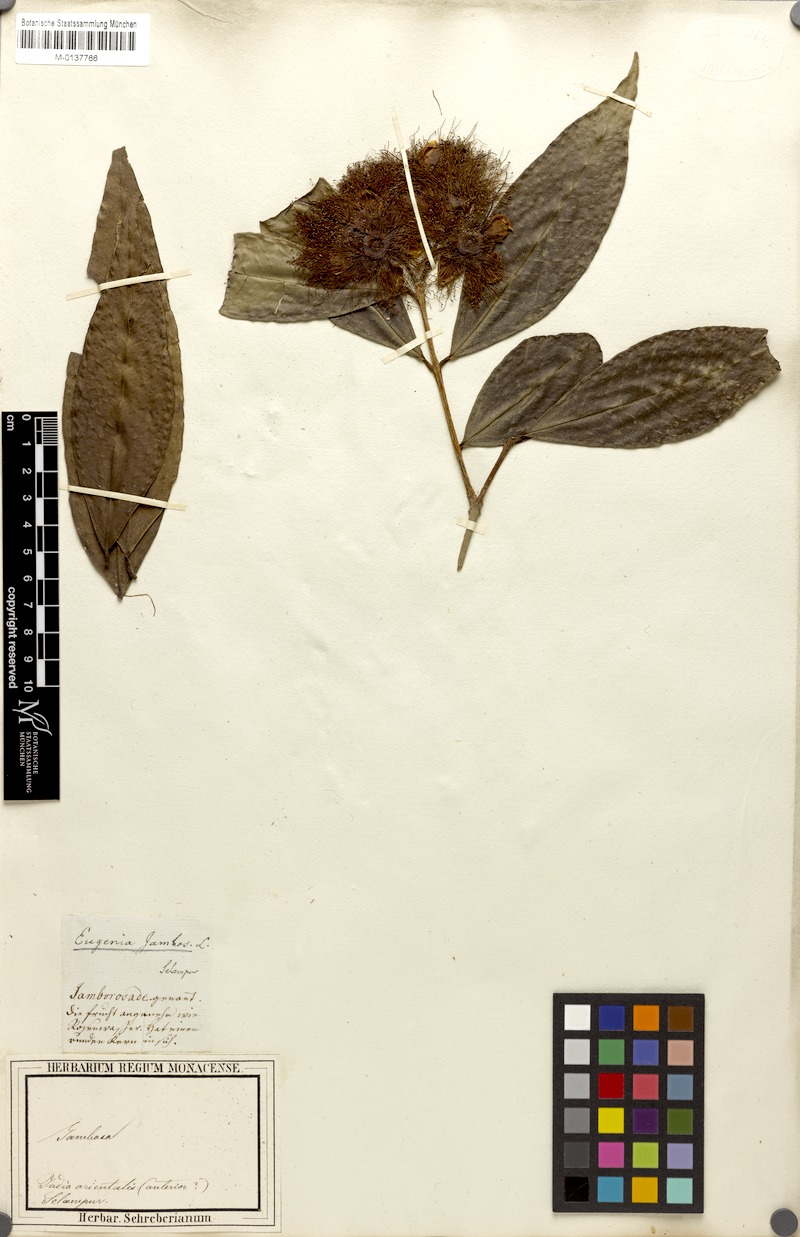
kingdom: Plantae
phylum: Tracheophyta
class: Magnoliopsida
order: Myrtales
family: Myrtaceae
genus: Syzygium
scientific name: Syzygium jambos
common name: Malabar plum
